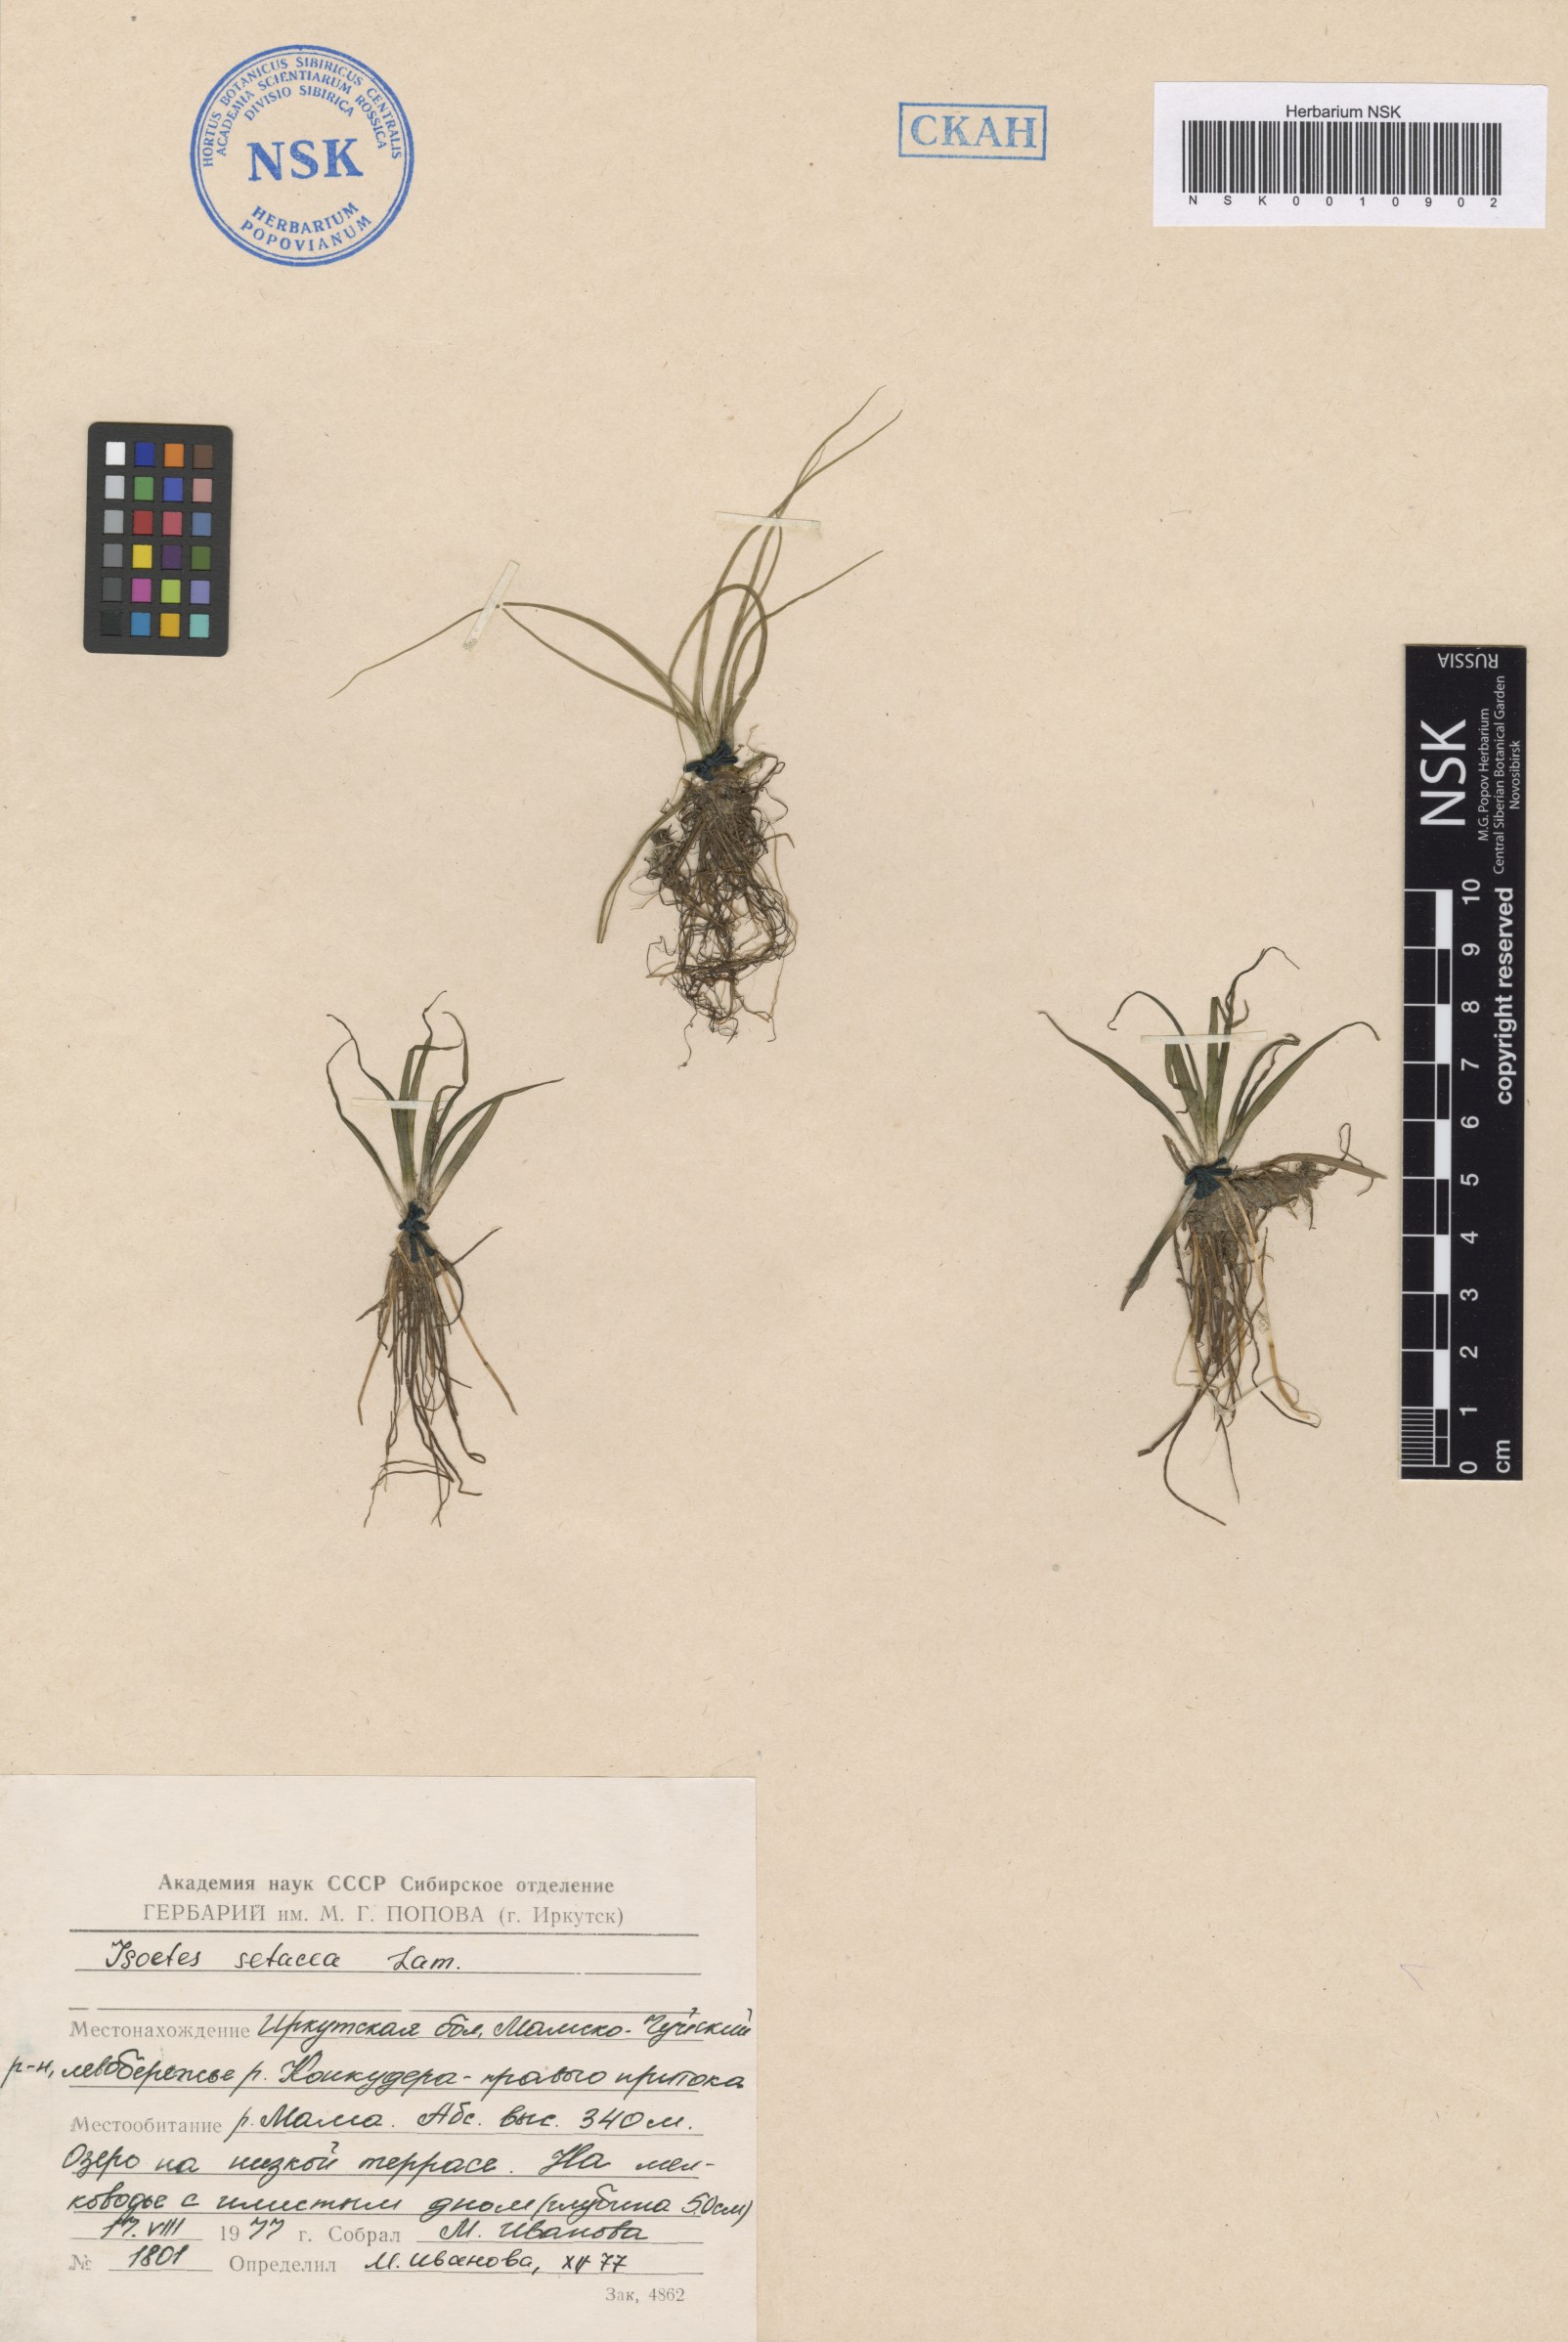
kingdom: Plantae
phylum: Tracheophyta
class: Lycopodiopsida
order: Isoetales
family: Isoetaceae
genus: Isoetes
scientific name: Isoetes lacustris
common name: Common quillwort
